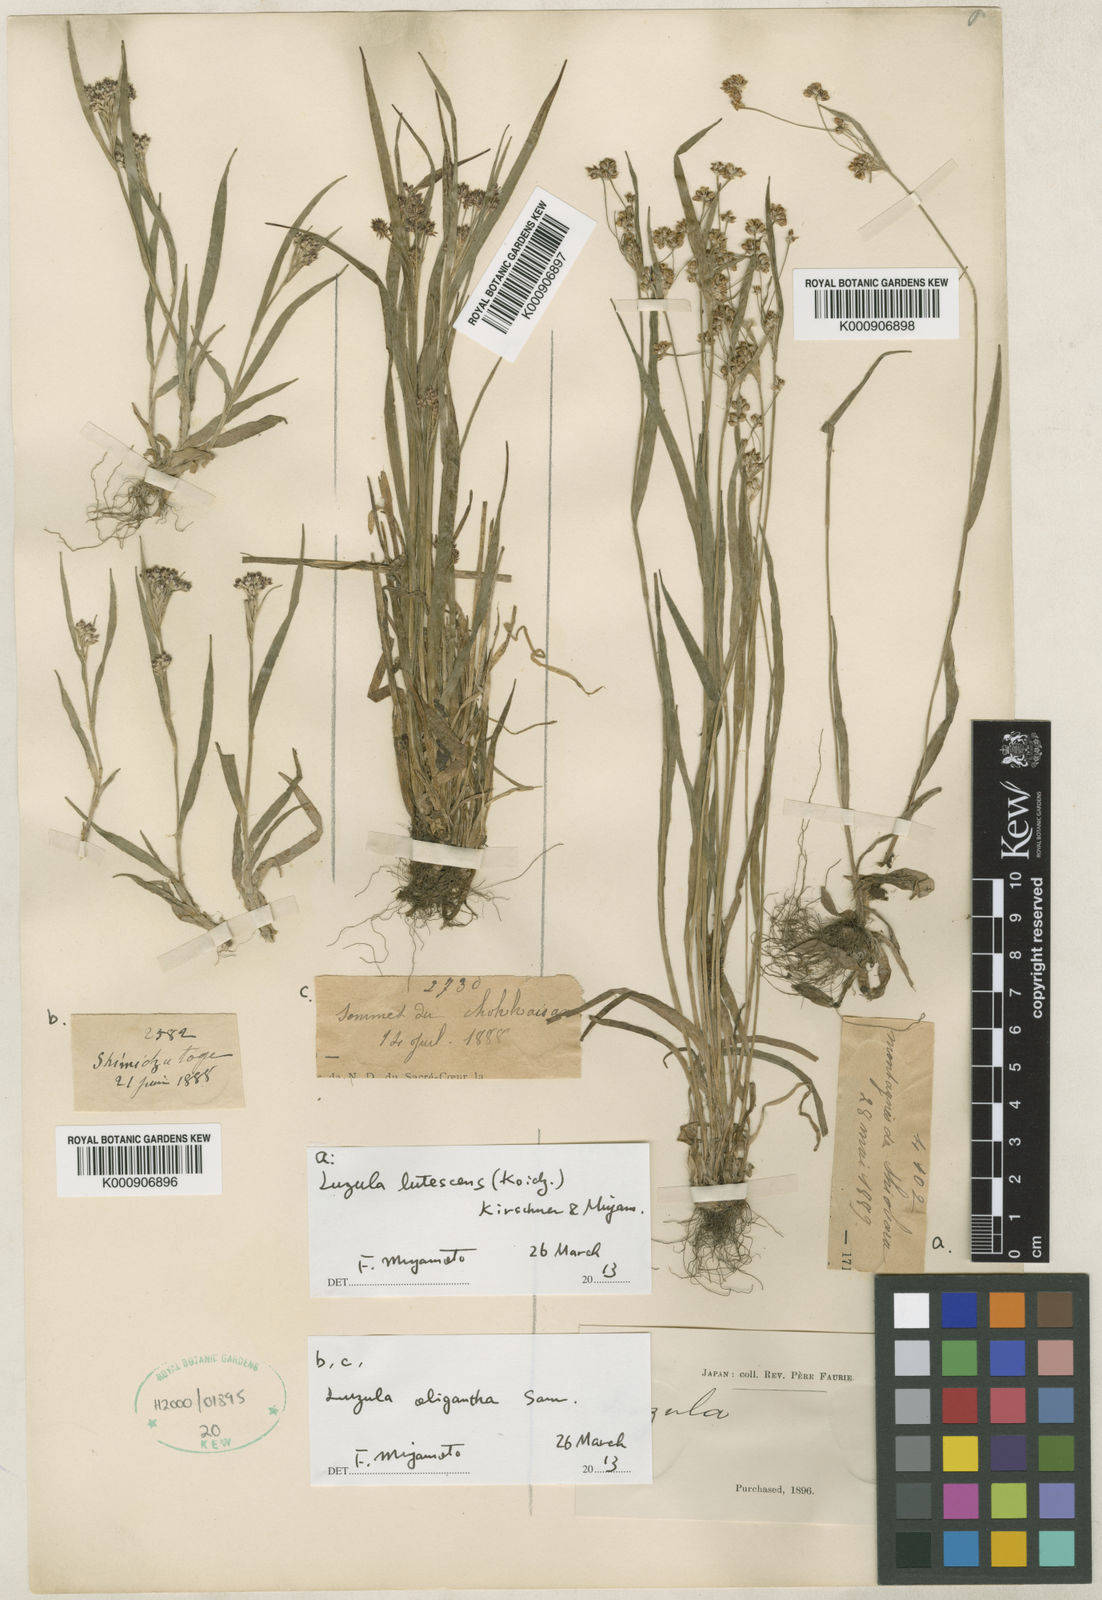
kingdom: Plantae
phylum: Tracheophyta
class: Liliopsida
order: Poales
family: Juncaceae
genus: Luzula
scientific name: Luzula campestris
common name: Field wood-rush
